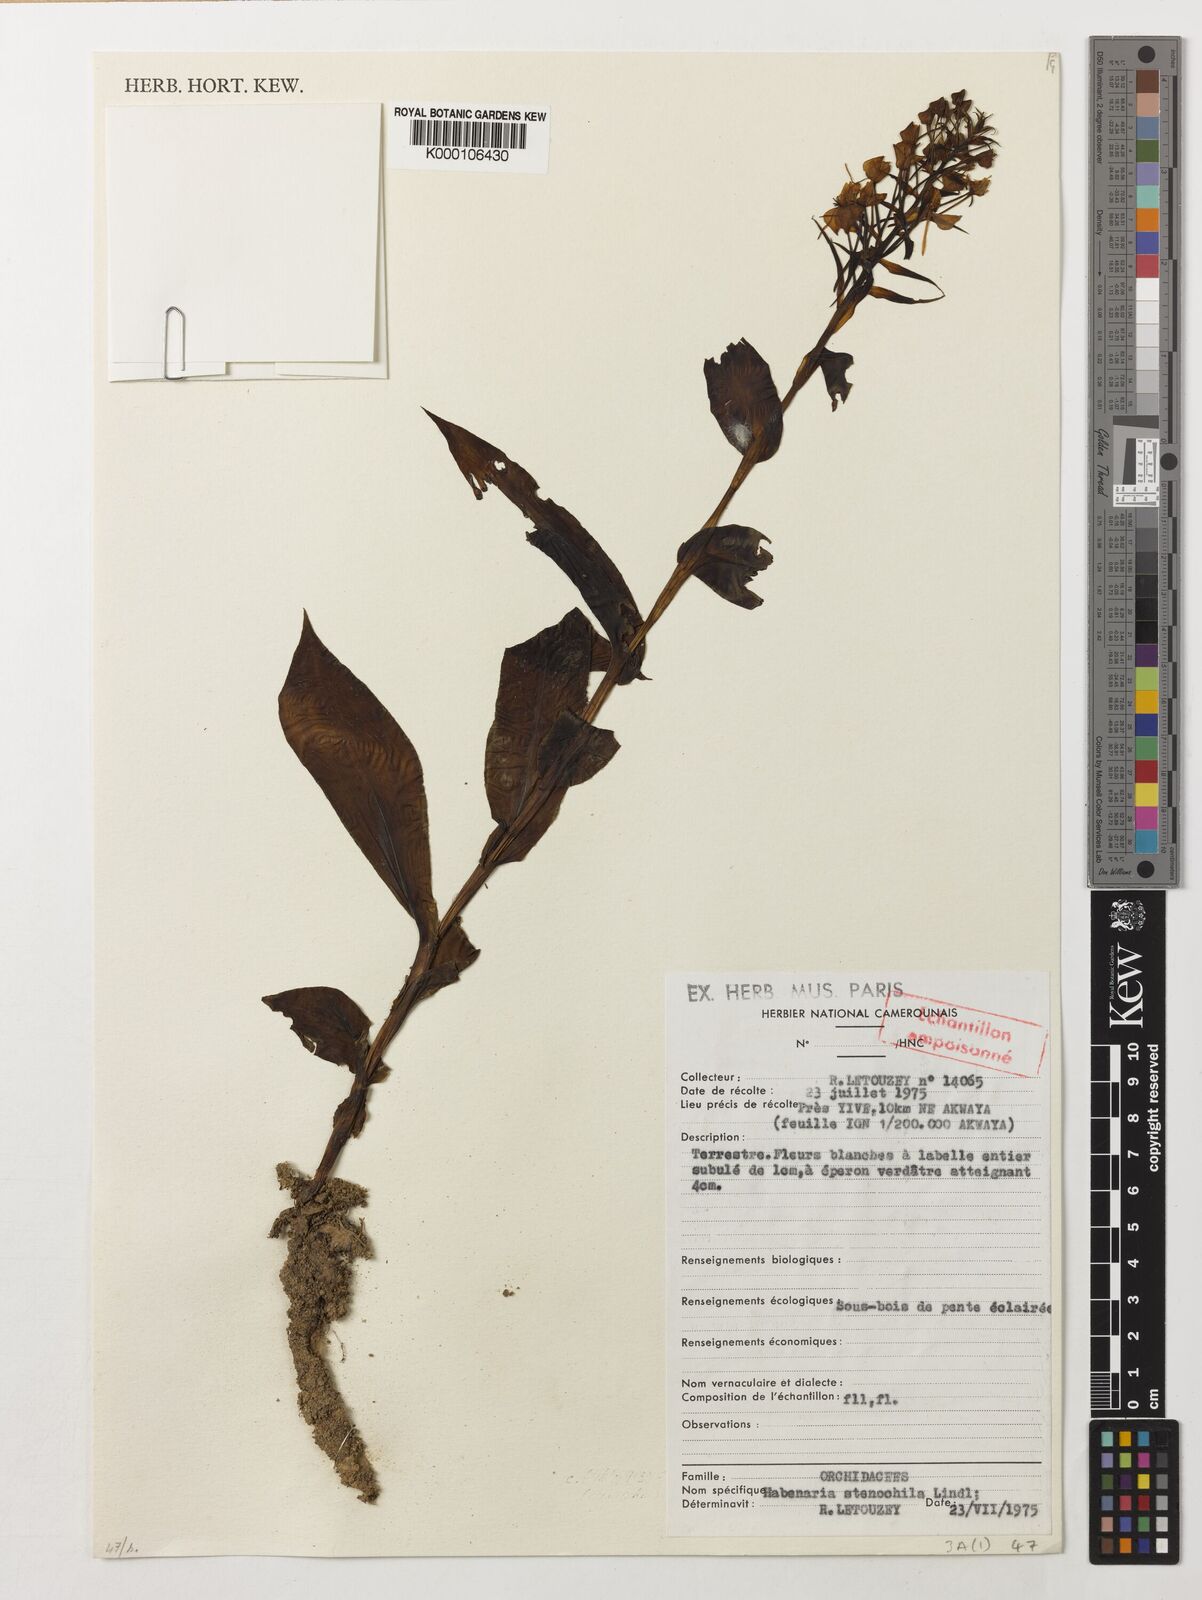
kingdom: Plantae
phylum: Tracheophyta
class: Liliopsida
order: Asparagales
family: Orchidaceae
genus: Habenaria
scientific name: Habenaria stenochila
